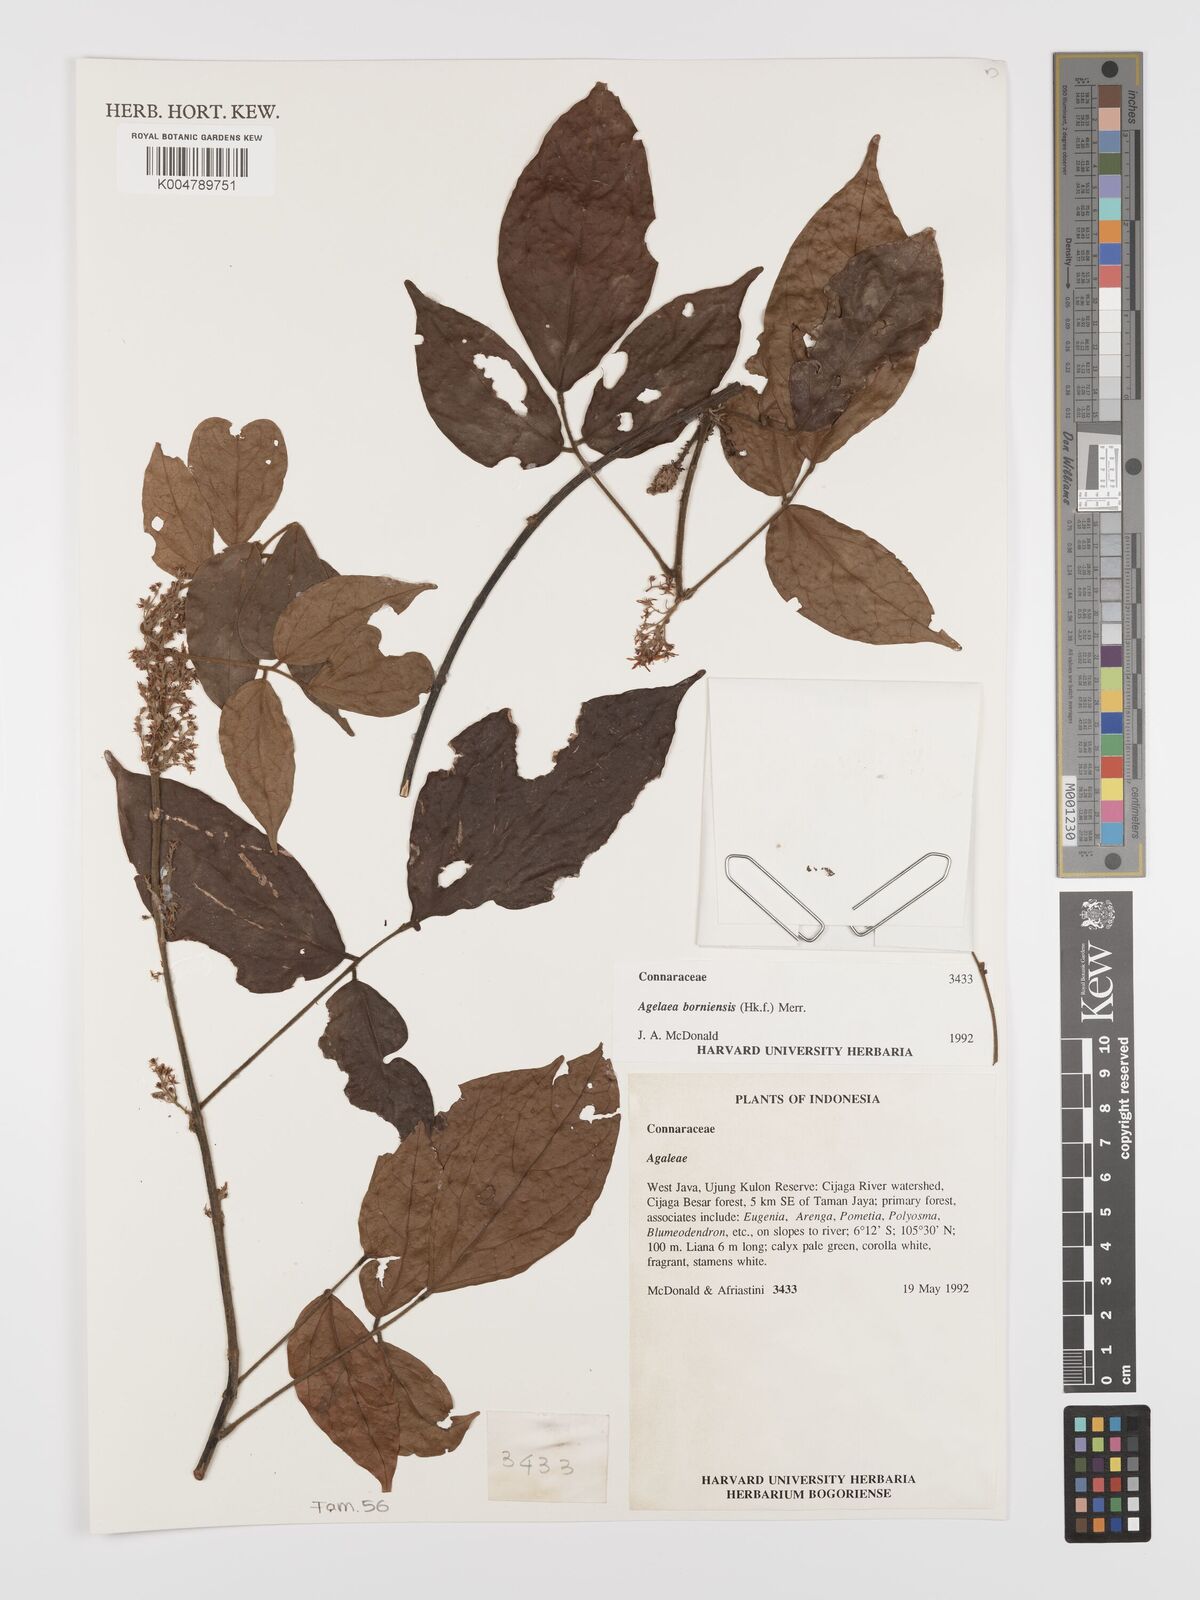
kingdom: Plantae
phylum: Tracheophyta
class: Magnoliopsida
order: Oxalidales
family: Connaraceae
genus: Agelaea
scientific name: Agelaea borneensis
